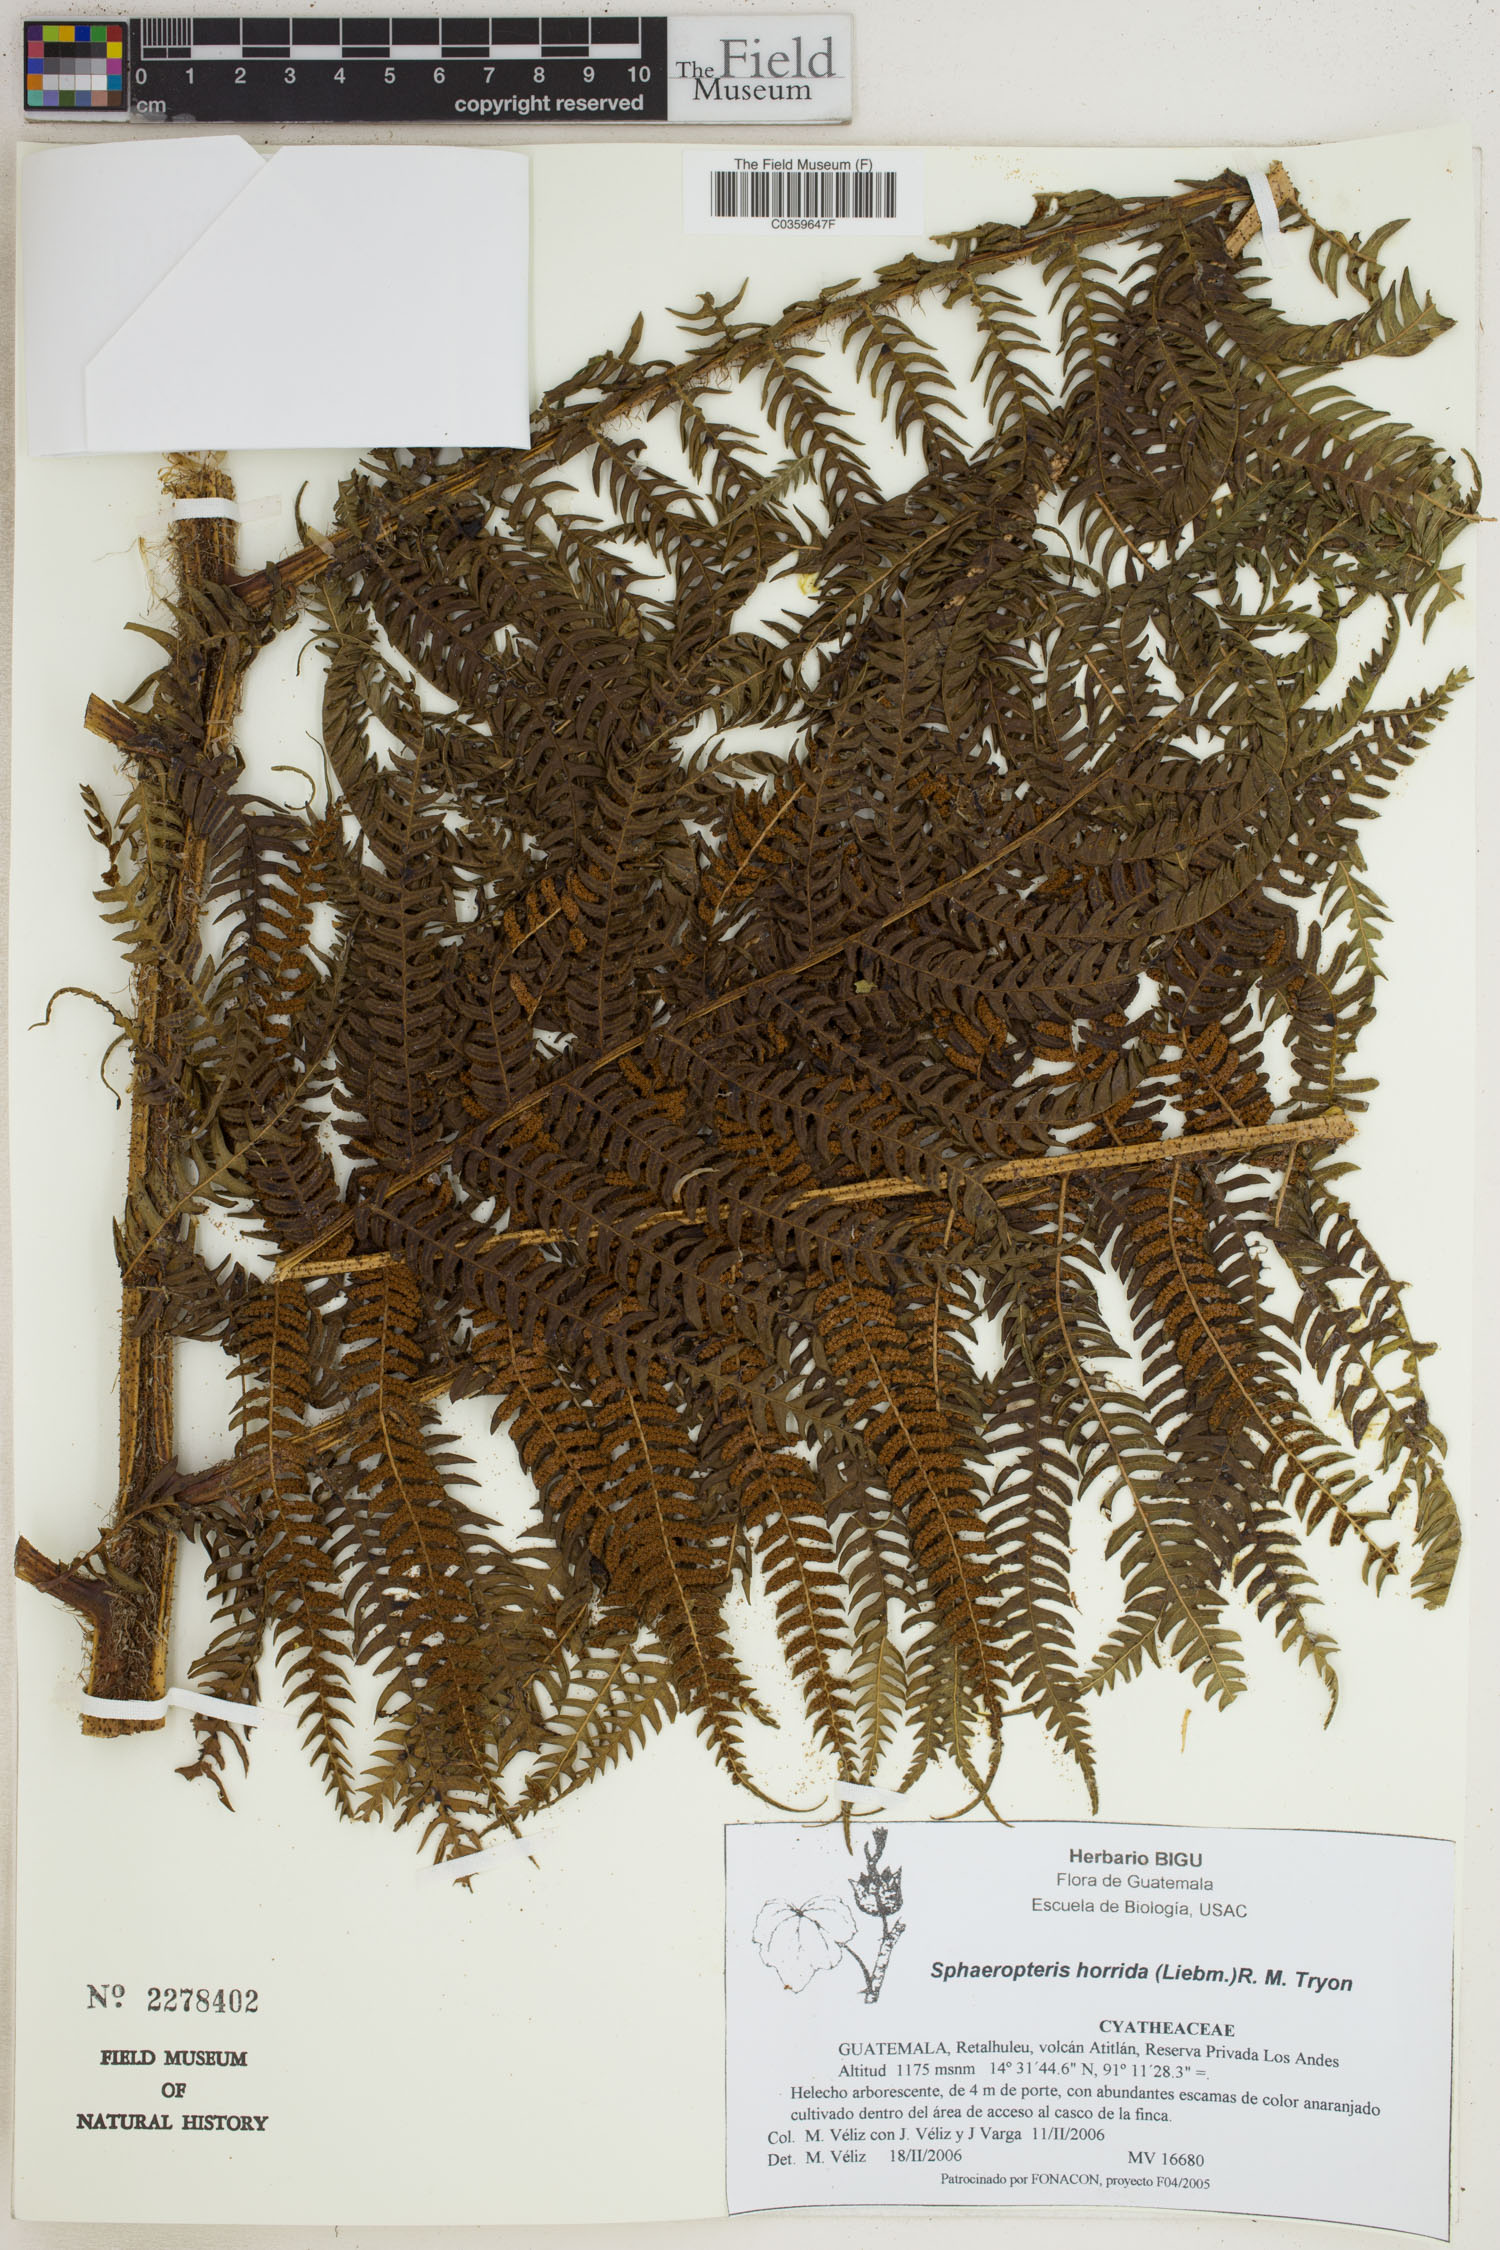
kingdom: Plantae
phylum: Tracheophyta
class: Polypodiopsida
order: Cyatheales
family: Cyatheaceae
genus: Sphaeropteris
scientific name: Sphaeropteris horrida
